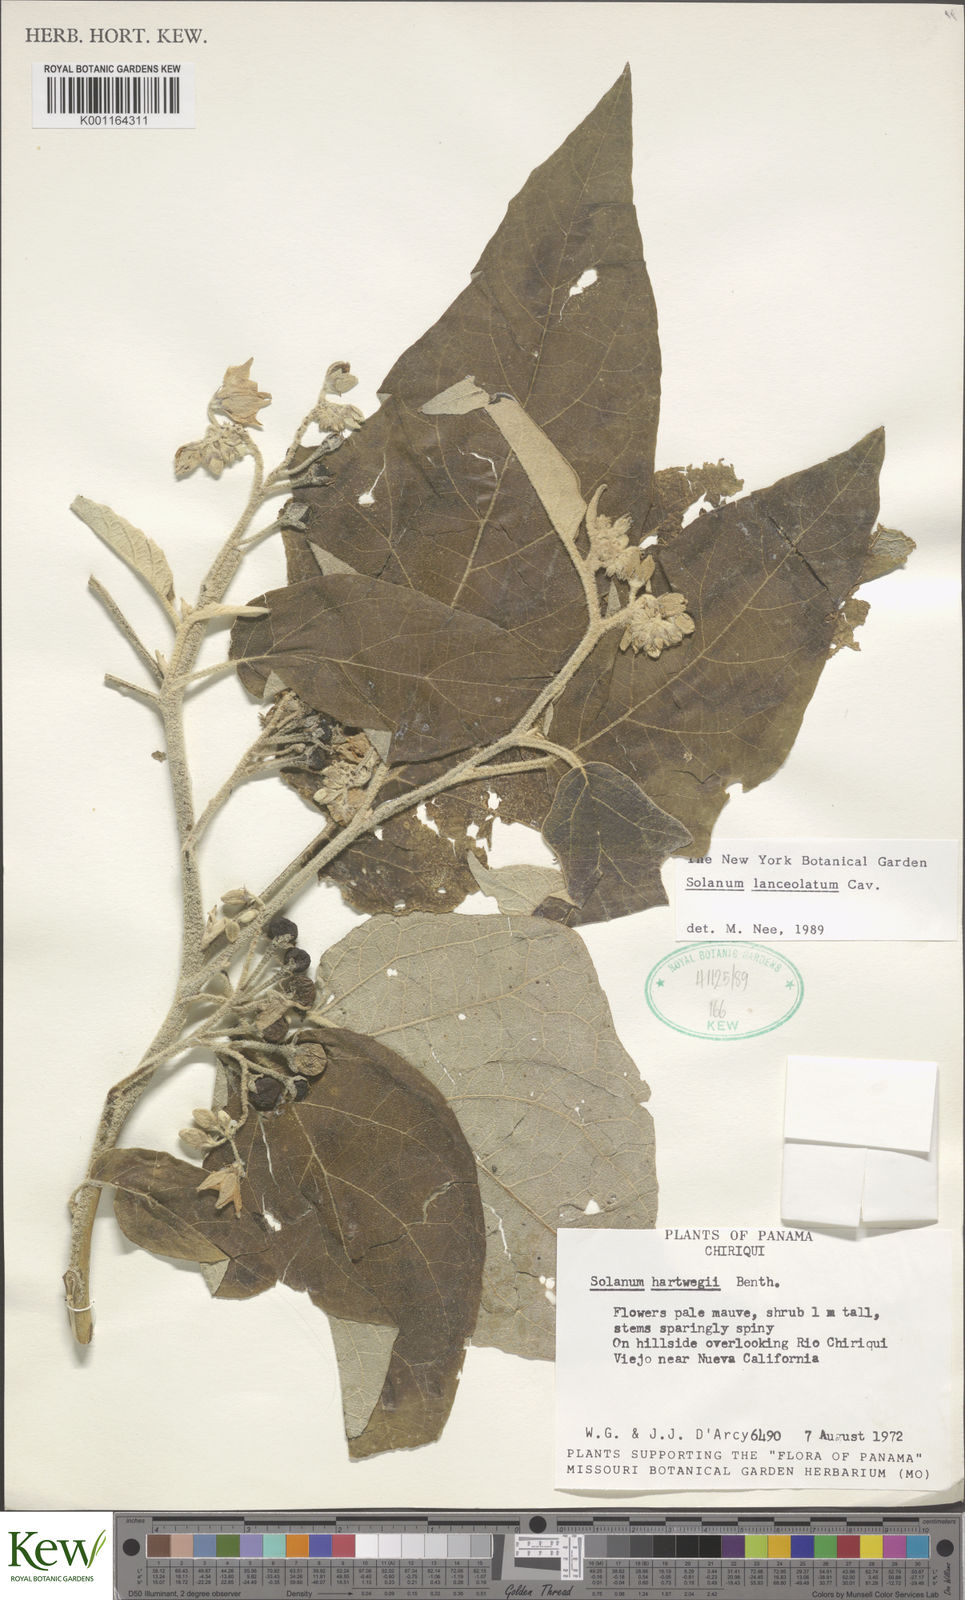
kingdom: Plantae
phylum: Tracheophyta
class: Magnoliopsida
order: Solanales
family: Solanaceae
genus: Solanum
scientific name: Solanum lanceolatum
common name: Orangeberry nightshade
